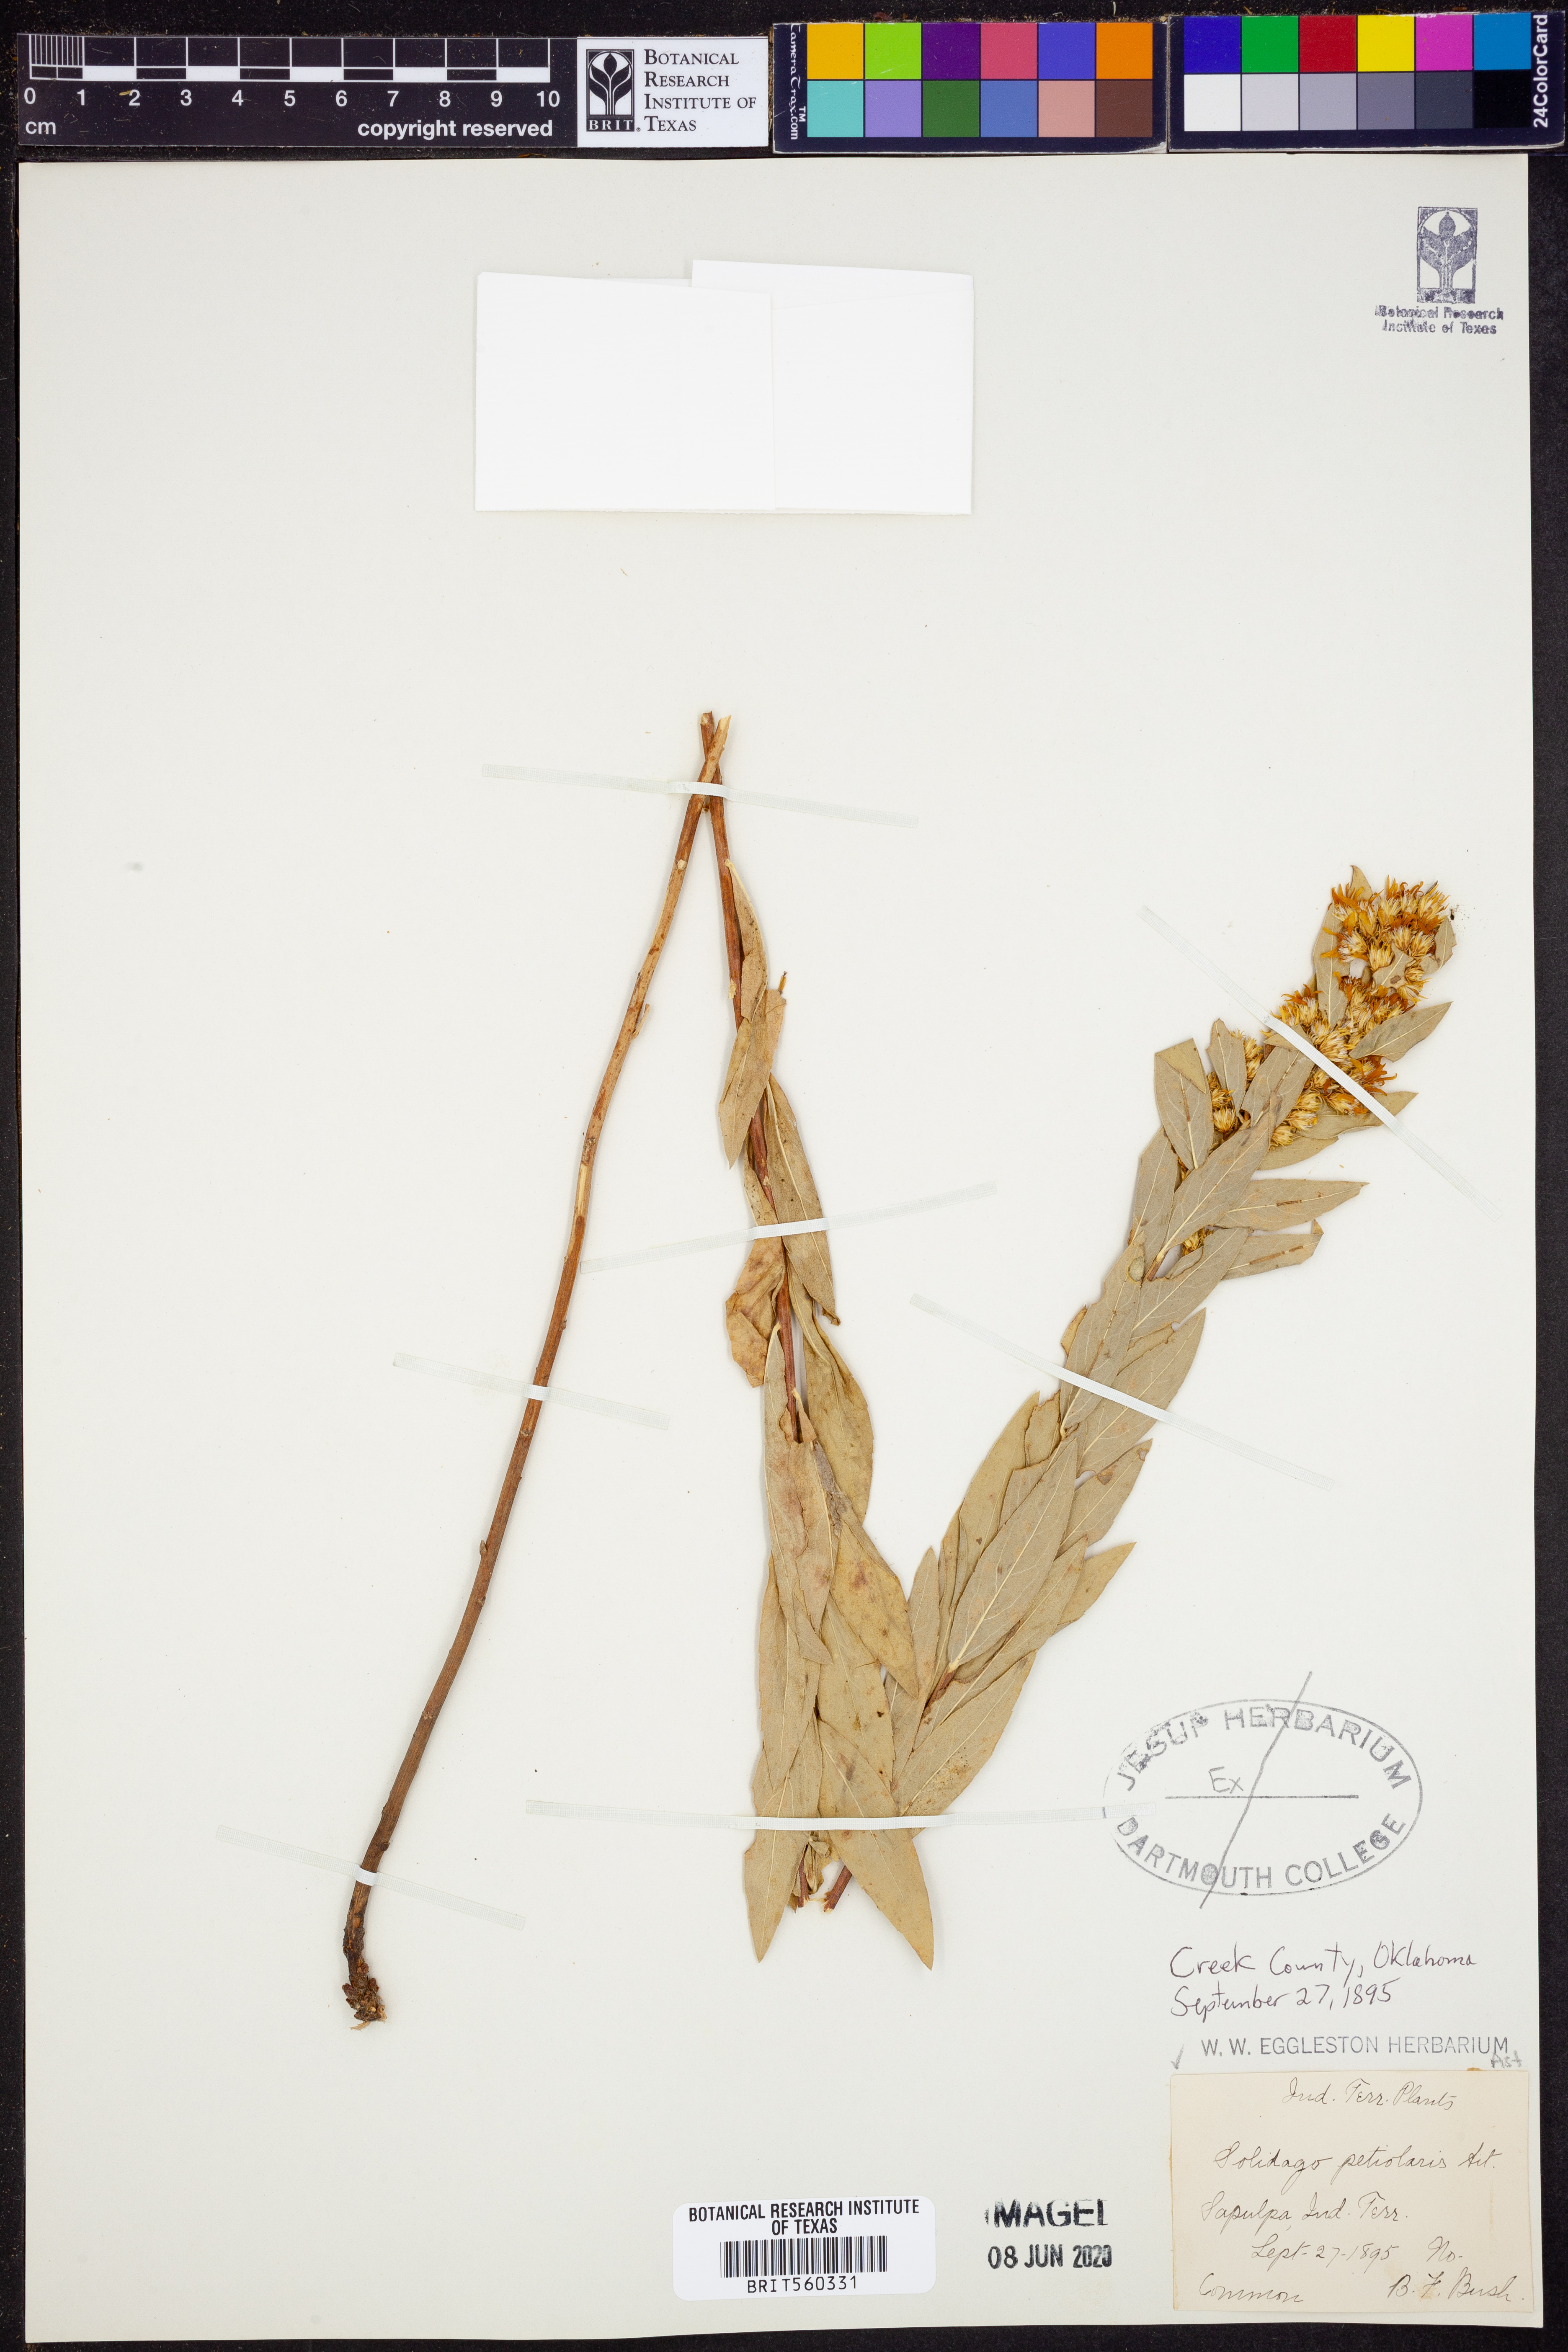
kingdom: Plantae
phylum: Tracheophyta
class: Magnoliopsida
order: Asterales
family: Asteraceae
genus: Solidago
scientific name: Solidago petiolaris
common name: Downy ragged goldenrod
